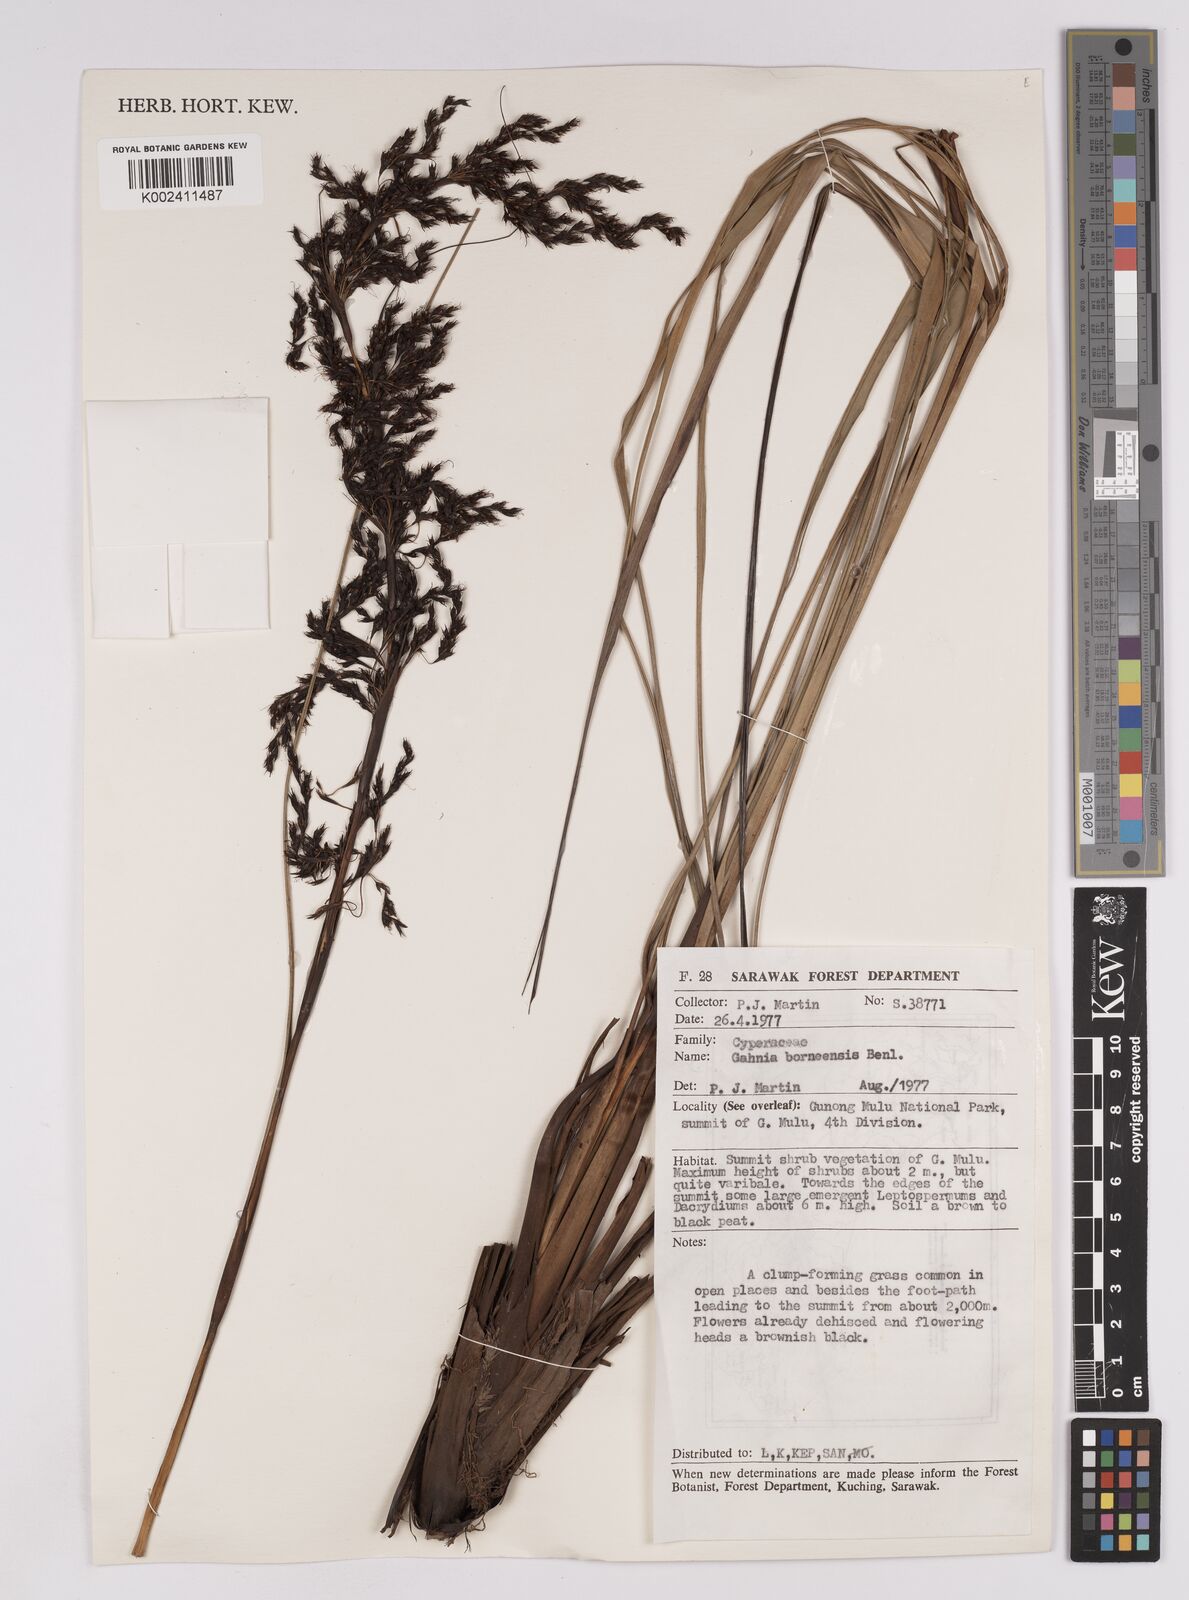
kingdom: Plantae
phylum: Tracheophyta
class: Liliopsida
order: Poales
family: Cyperaceae
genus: Gahnia
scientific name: Gahnia javanica
